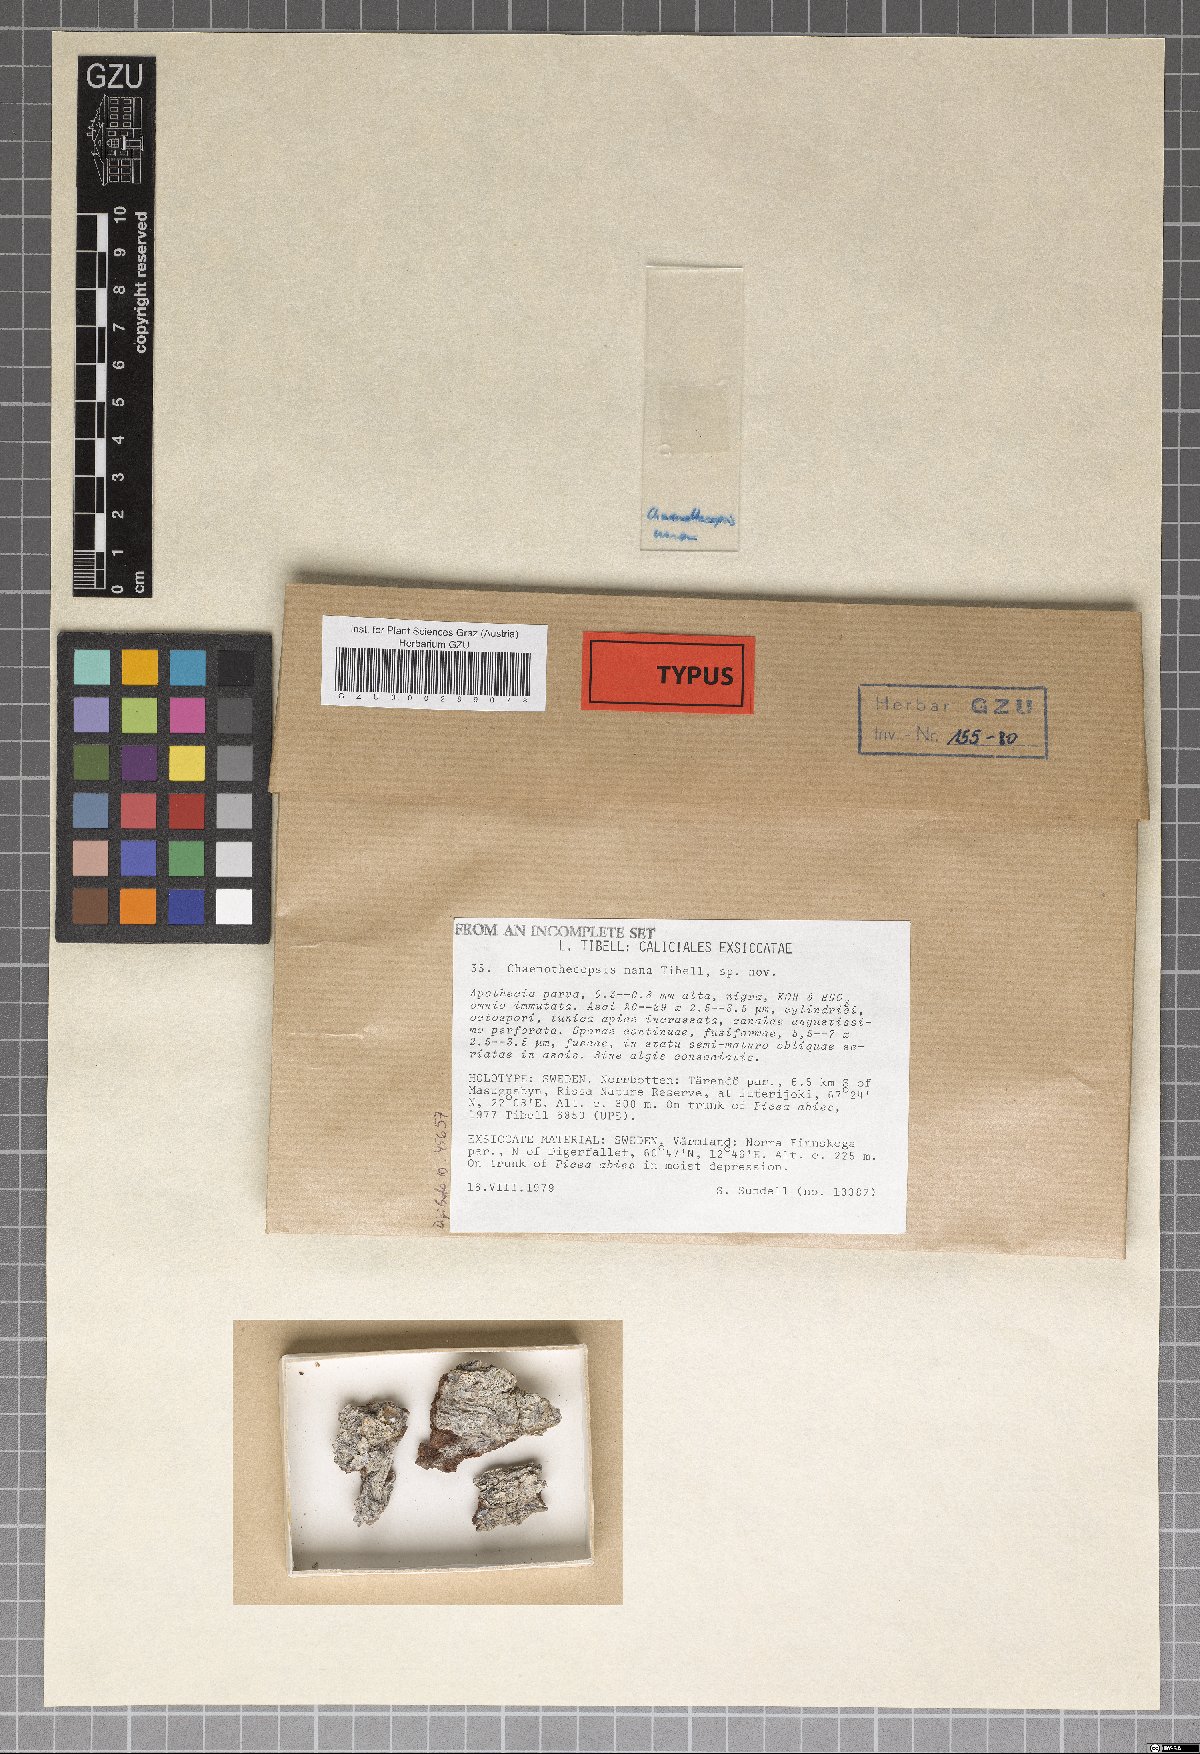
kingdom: Fungi
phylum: Ascomycota
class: Eurotiomycetes
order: Mycocaliciales
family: Mycocaliciaceae
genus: Chaenothecopsis
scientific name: Chaenothecopsis nana
